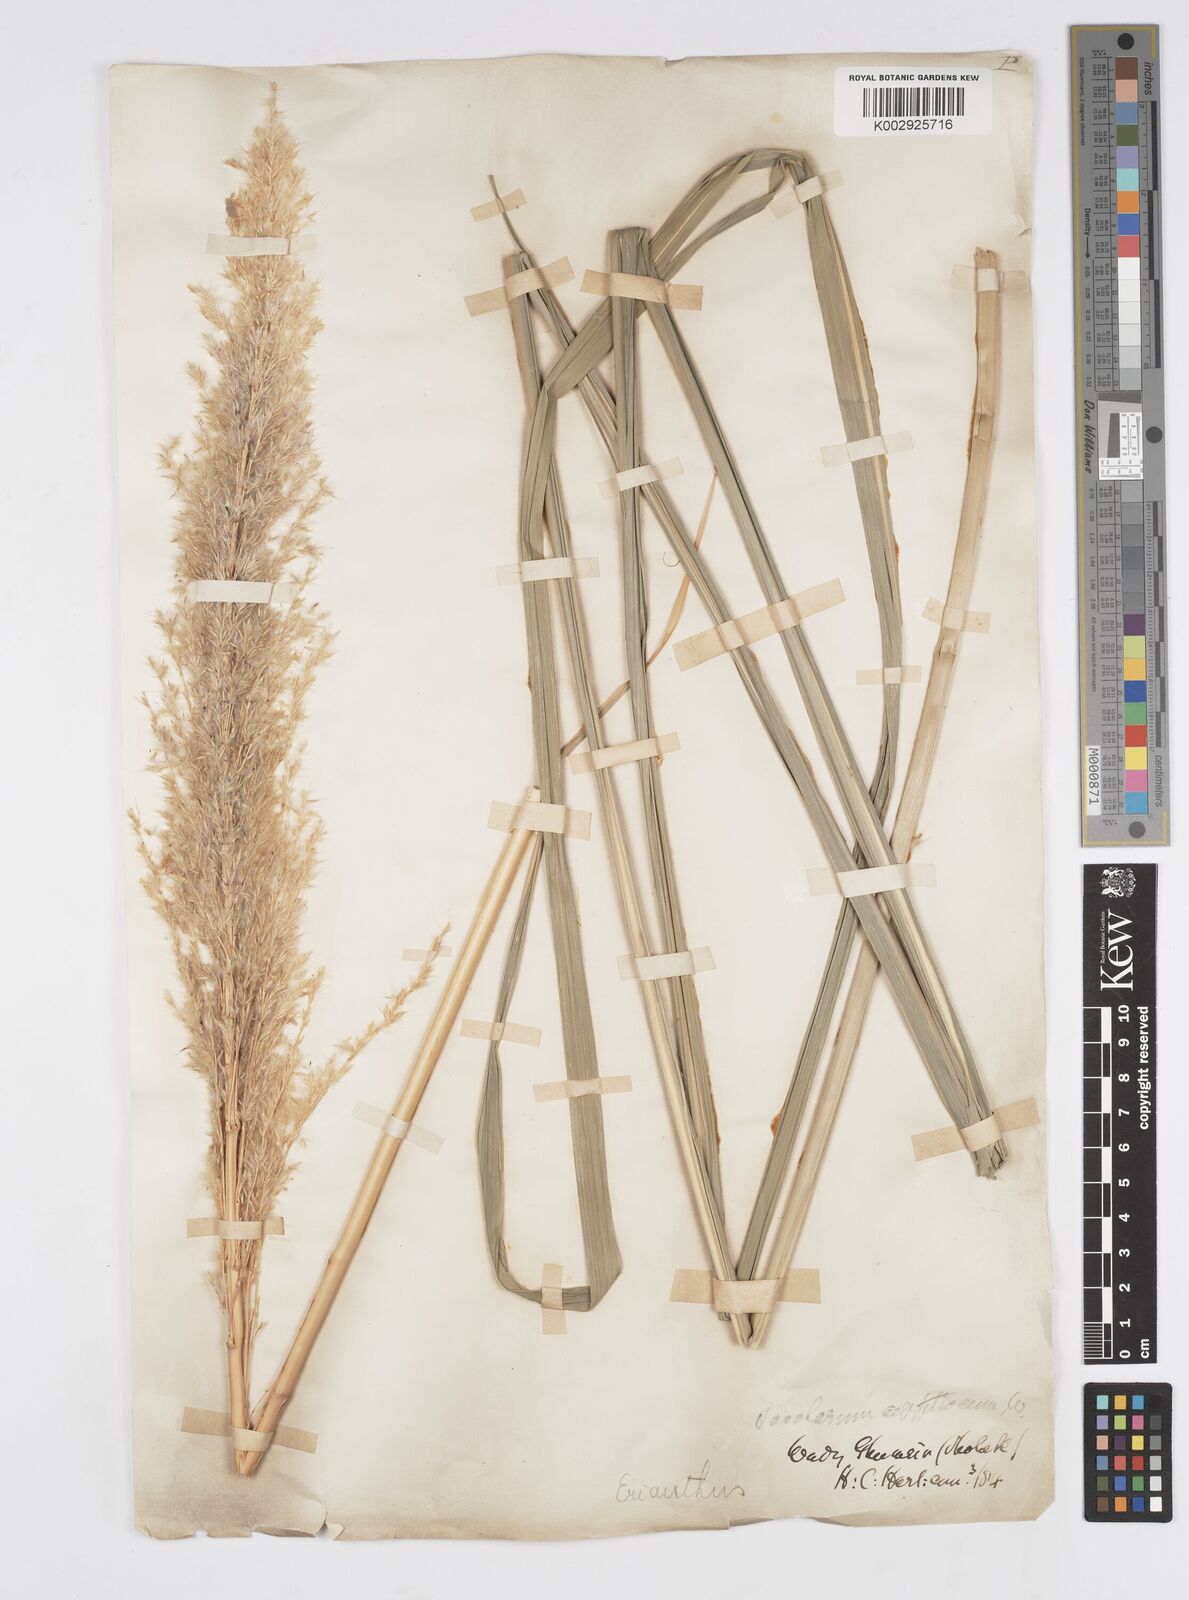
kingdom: Plantae
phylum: Tracheophyta
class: Liliopsida
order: Poales
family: Poaceae
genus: Tripidium
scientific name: Tripidium ravennae
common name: Ravenna grass
